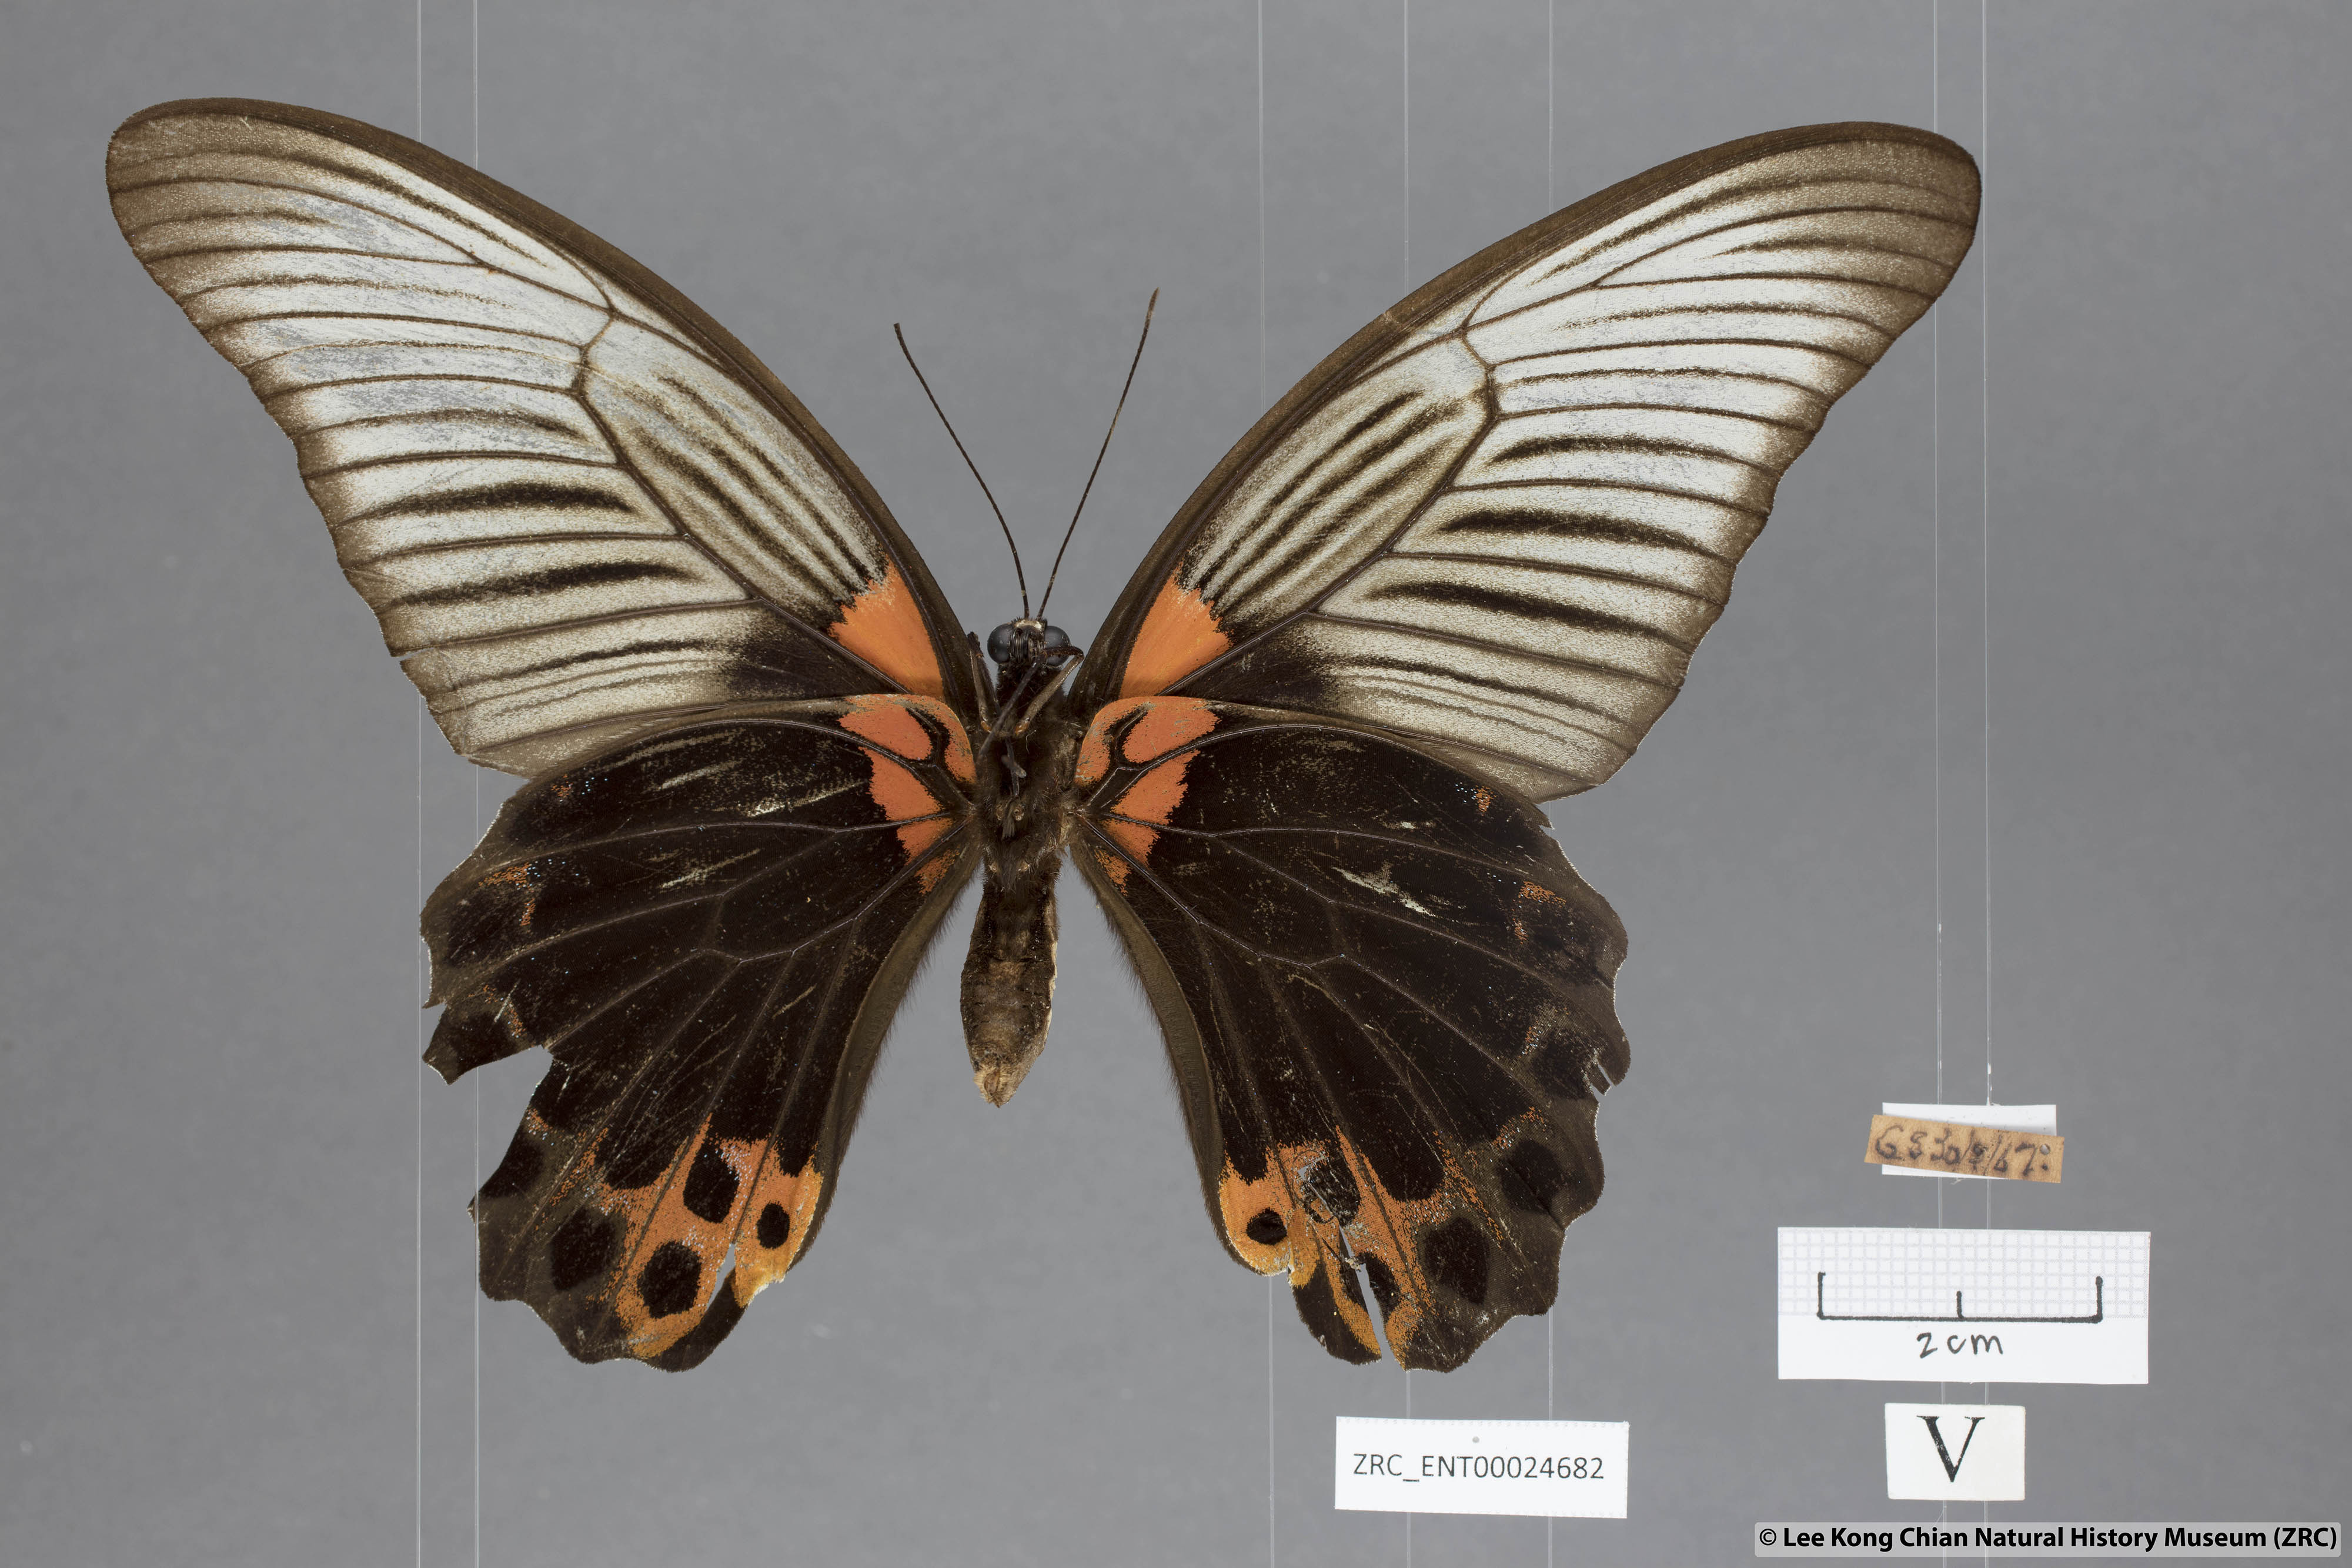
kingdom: Animalia
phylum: Arthropoda
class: Insecta
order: Lepidoptera
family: Papilionidae
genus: Papilio
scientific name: Papilio memnon
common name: Great mormon
